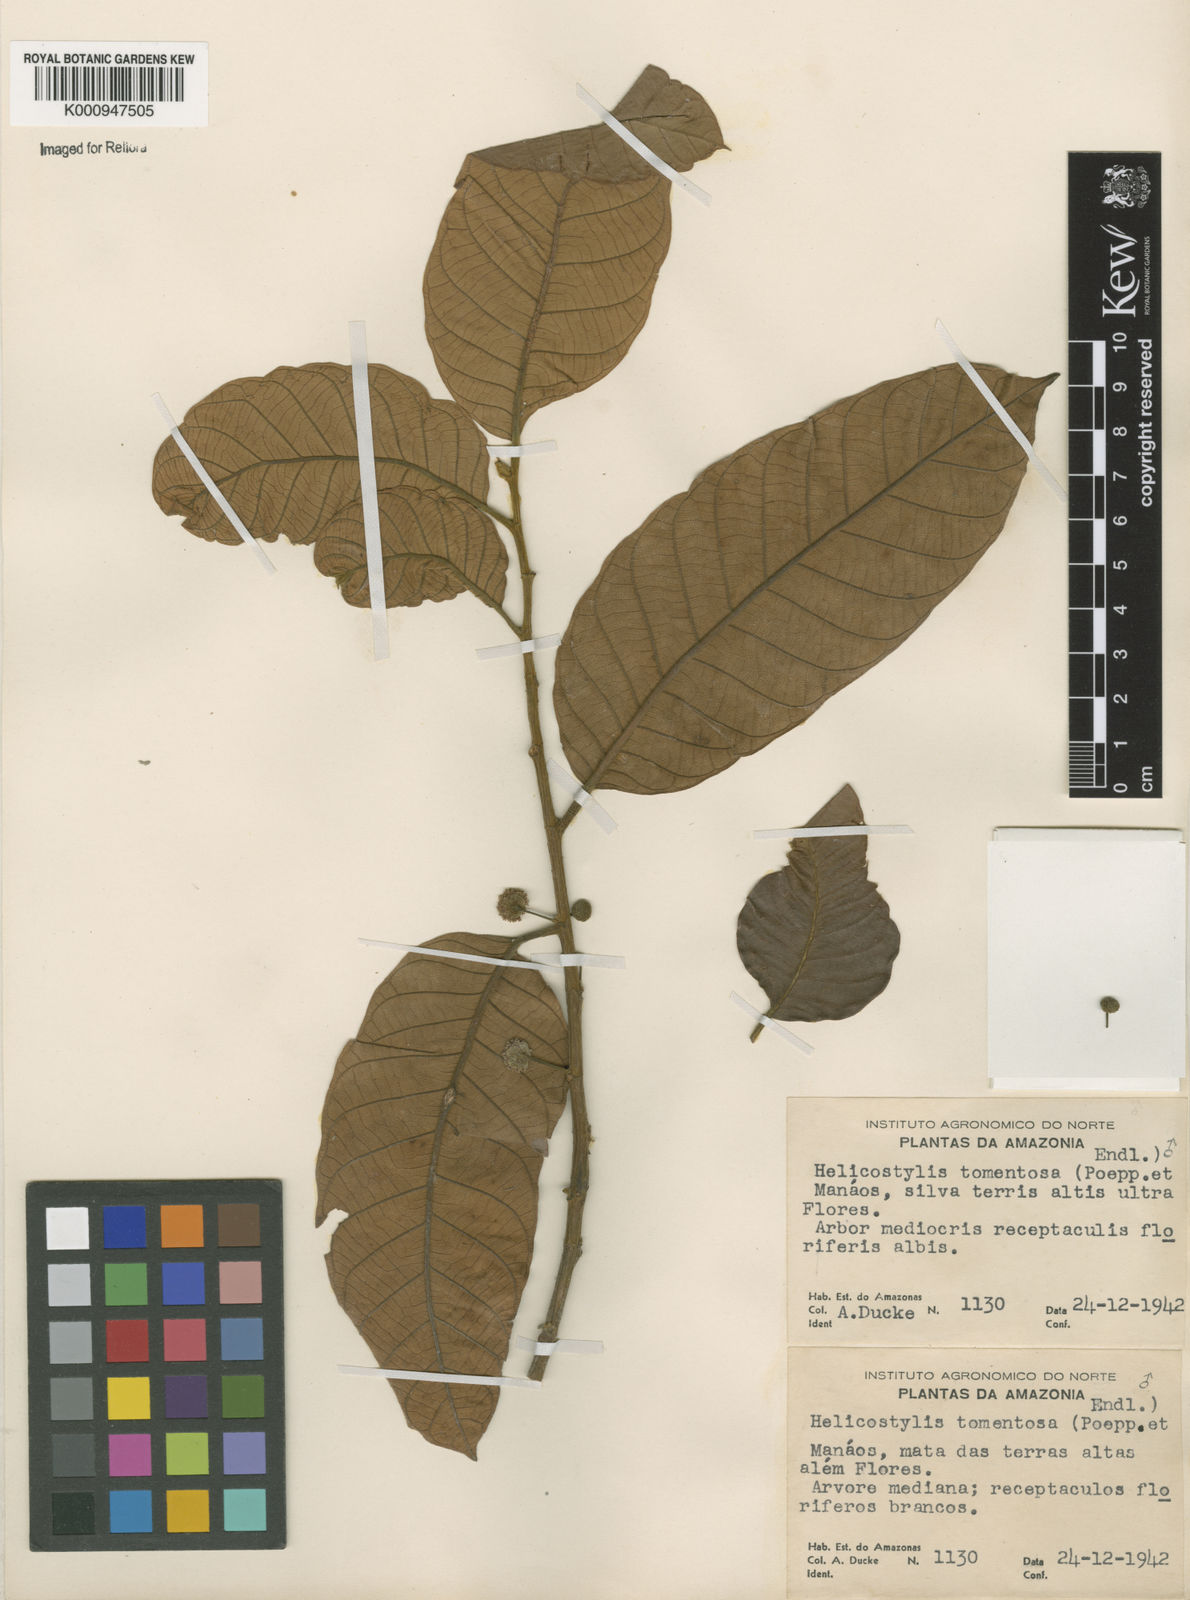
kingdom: Plantae
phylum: Tracheophyta
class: Magnoliopsida
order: Rosales
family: Moraceae
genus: Helicostylis
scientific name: Helicostylis
